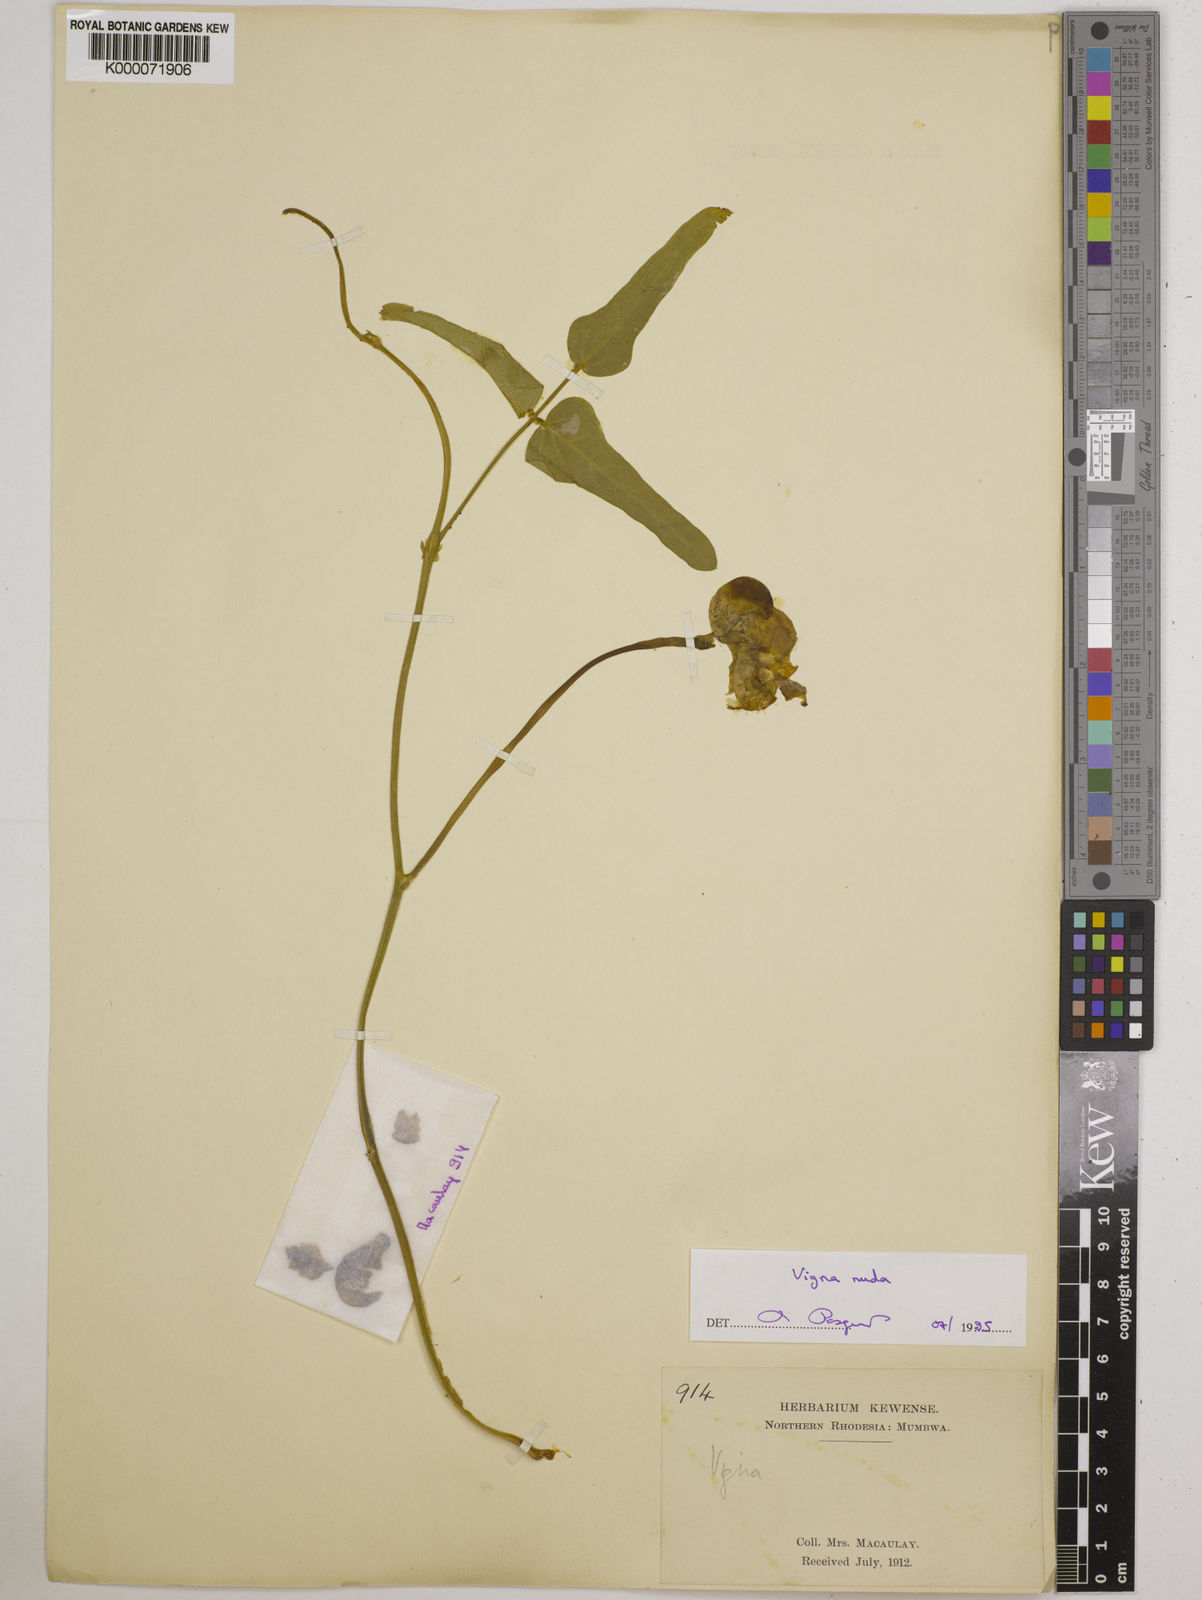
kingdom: Plantae
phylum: Tracheophyta
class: Magnoliopsida
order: Fabales
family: Fabaceae
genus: Vigna
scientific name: Vigna antunesii
